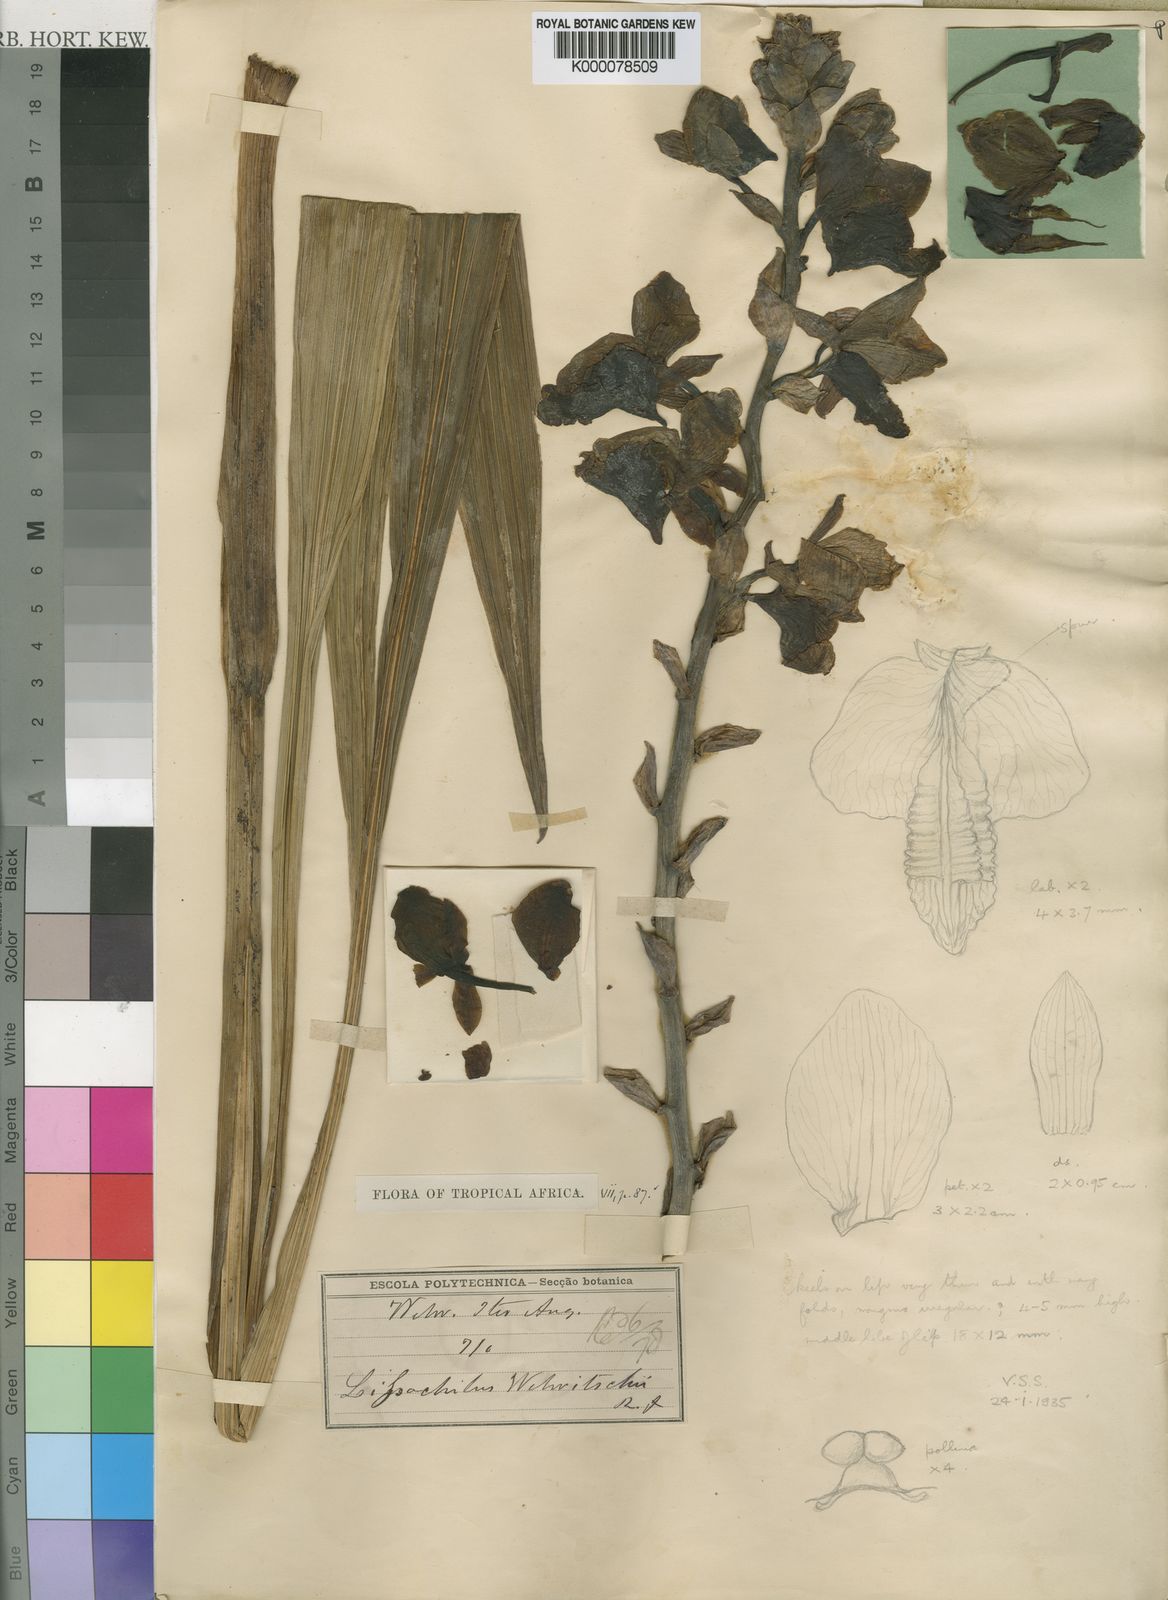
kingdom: Plantae
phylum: Tracheophyta
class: Liliopsida
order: Asparagales
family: Orchidaceae
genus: Eulophia
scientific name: Eulophia horsfallii
